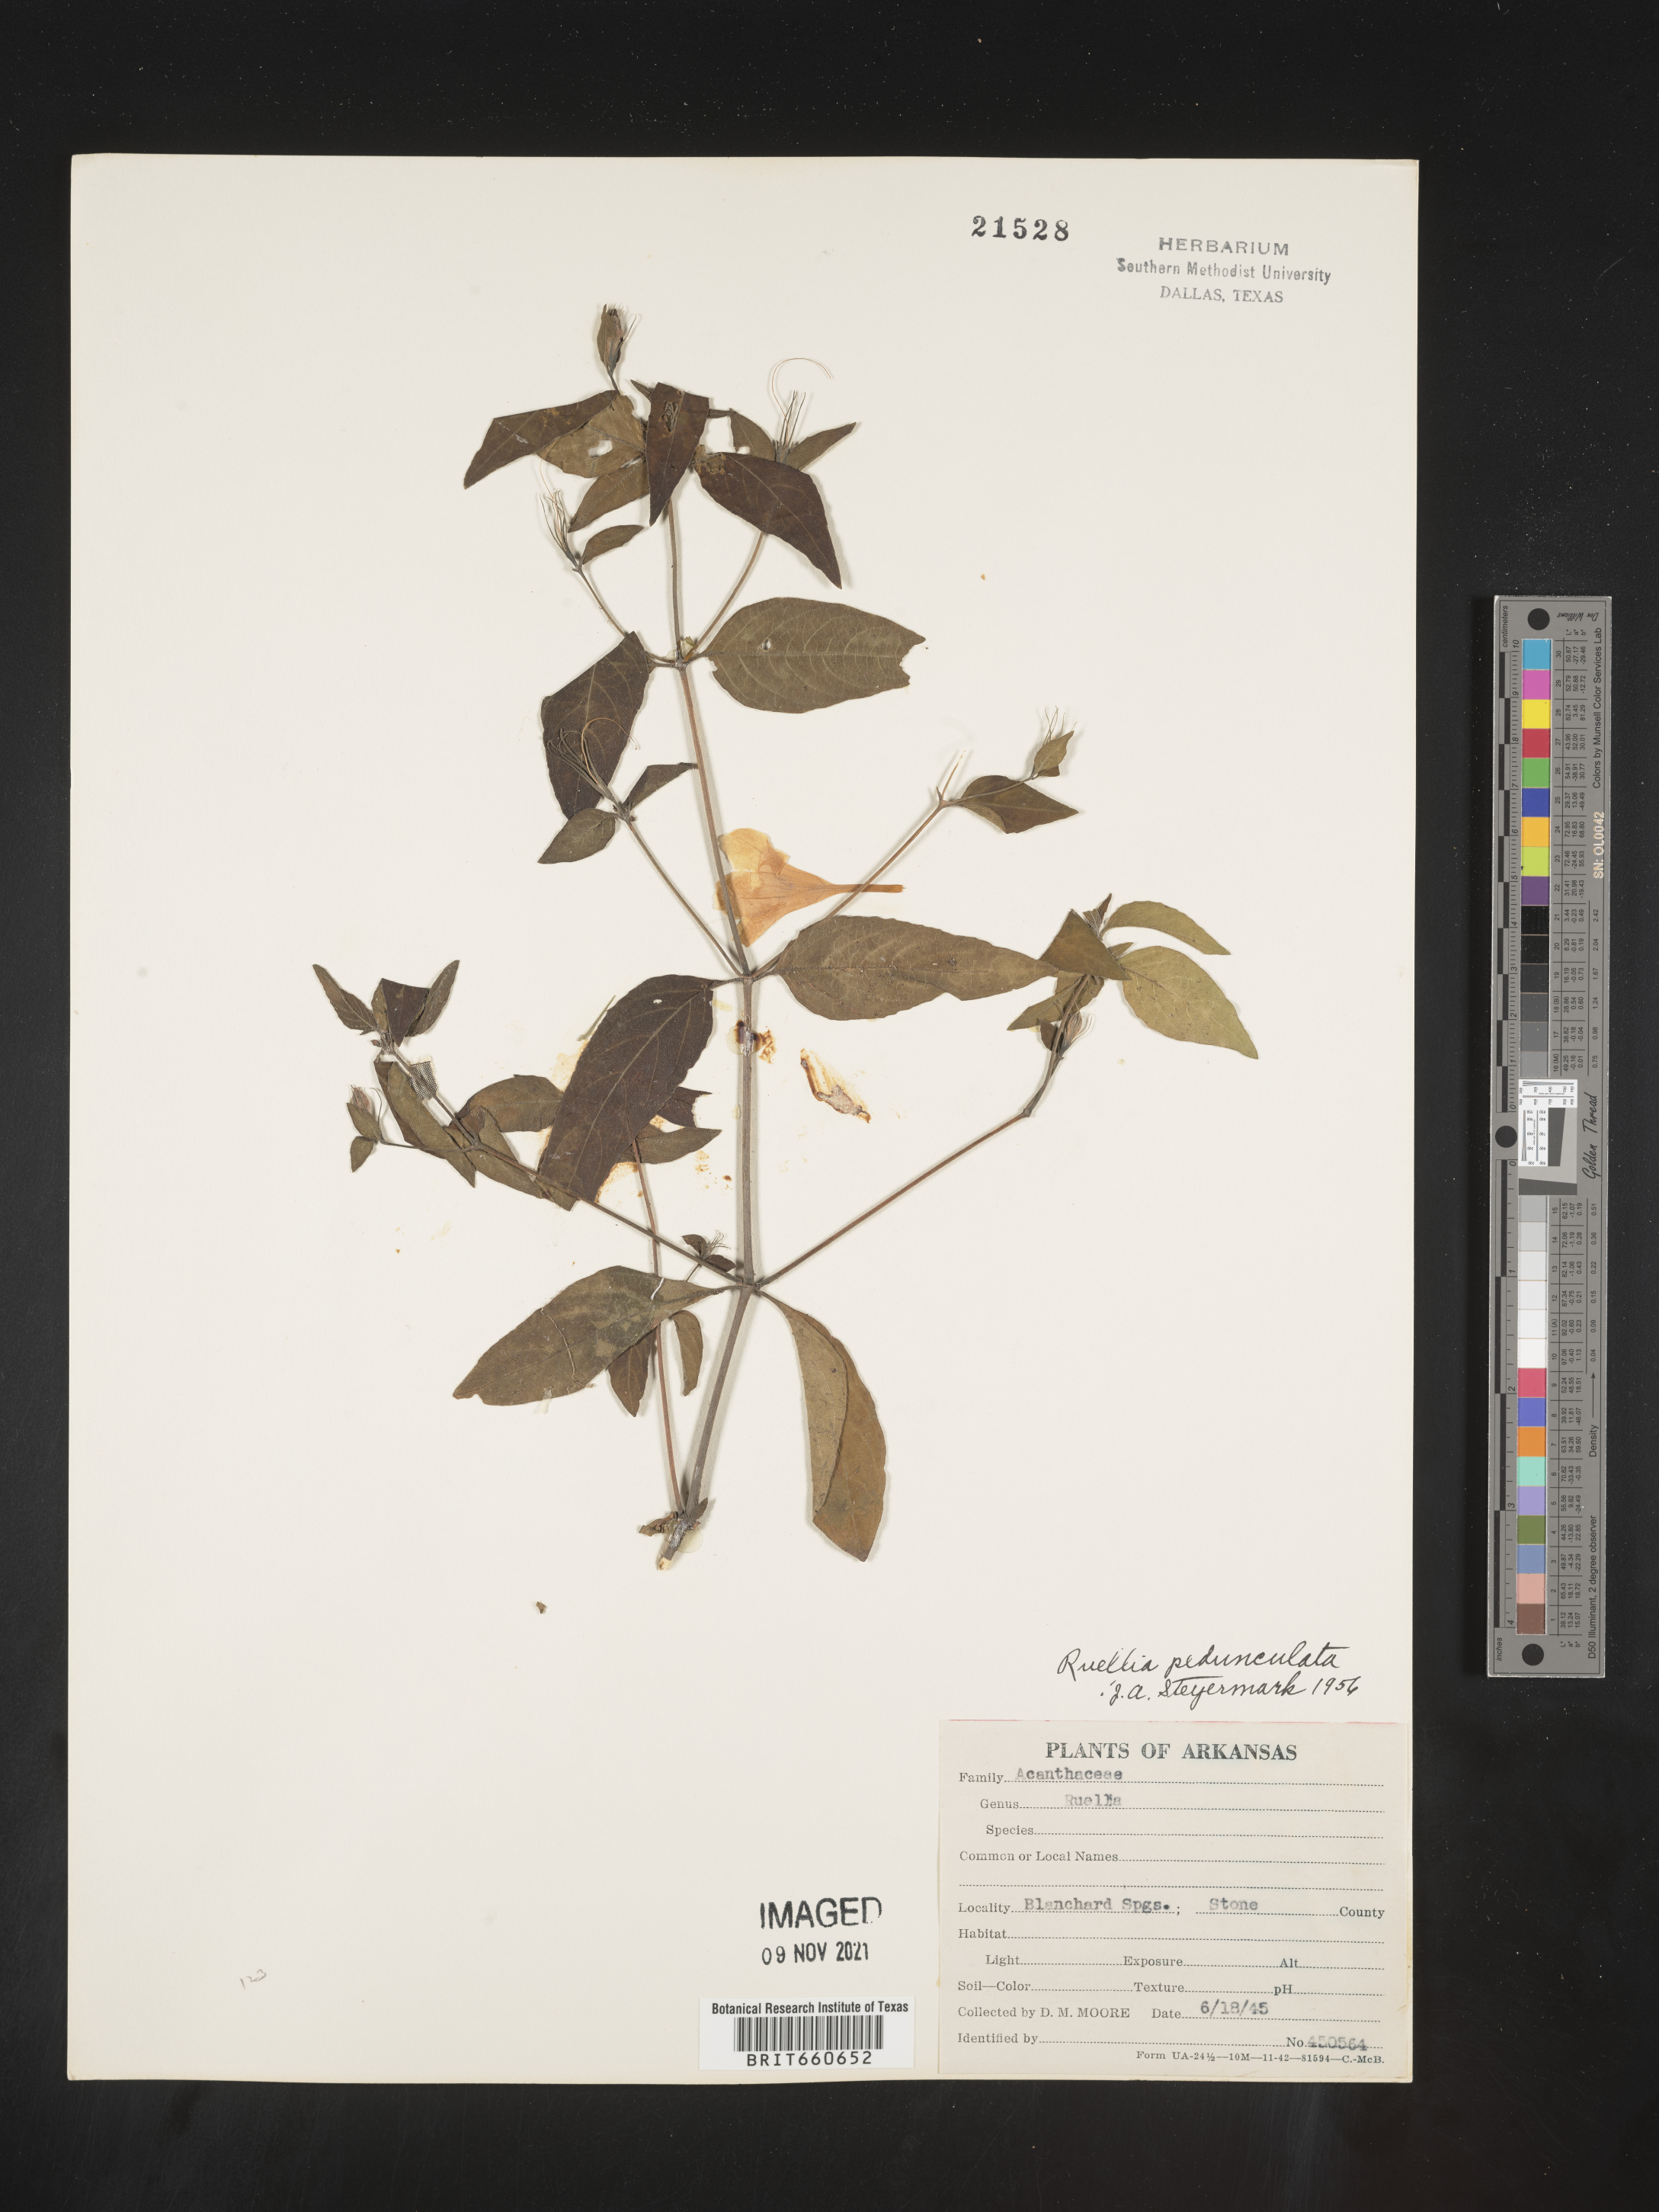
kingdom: Plantae
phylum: Tracheophyta
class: Magnoliopsida
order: Lamiales
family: Acanthaceae
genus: Ruellia
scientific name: Ruellia pedunculata
